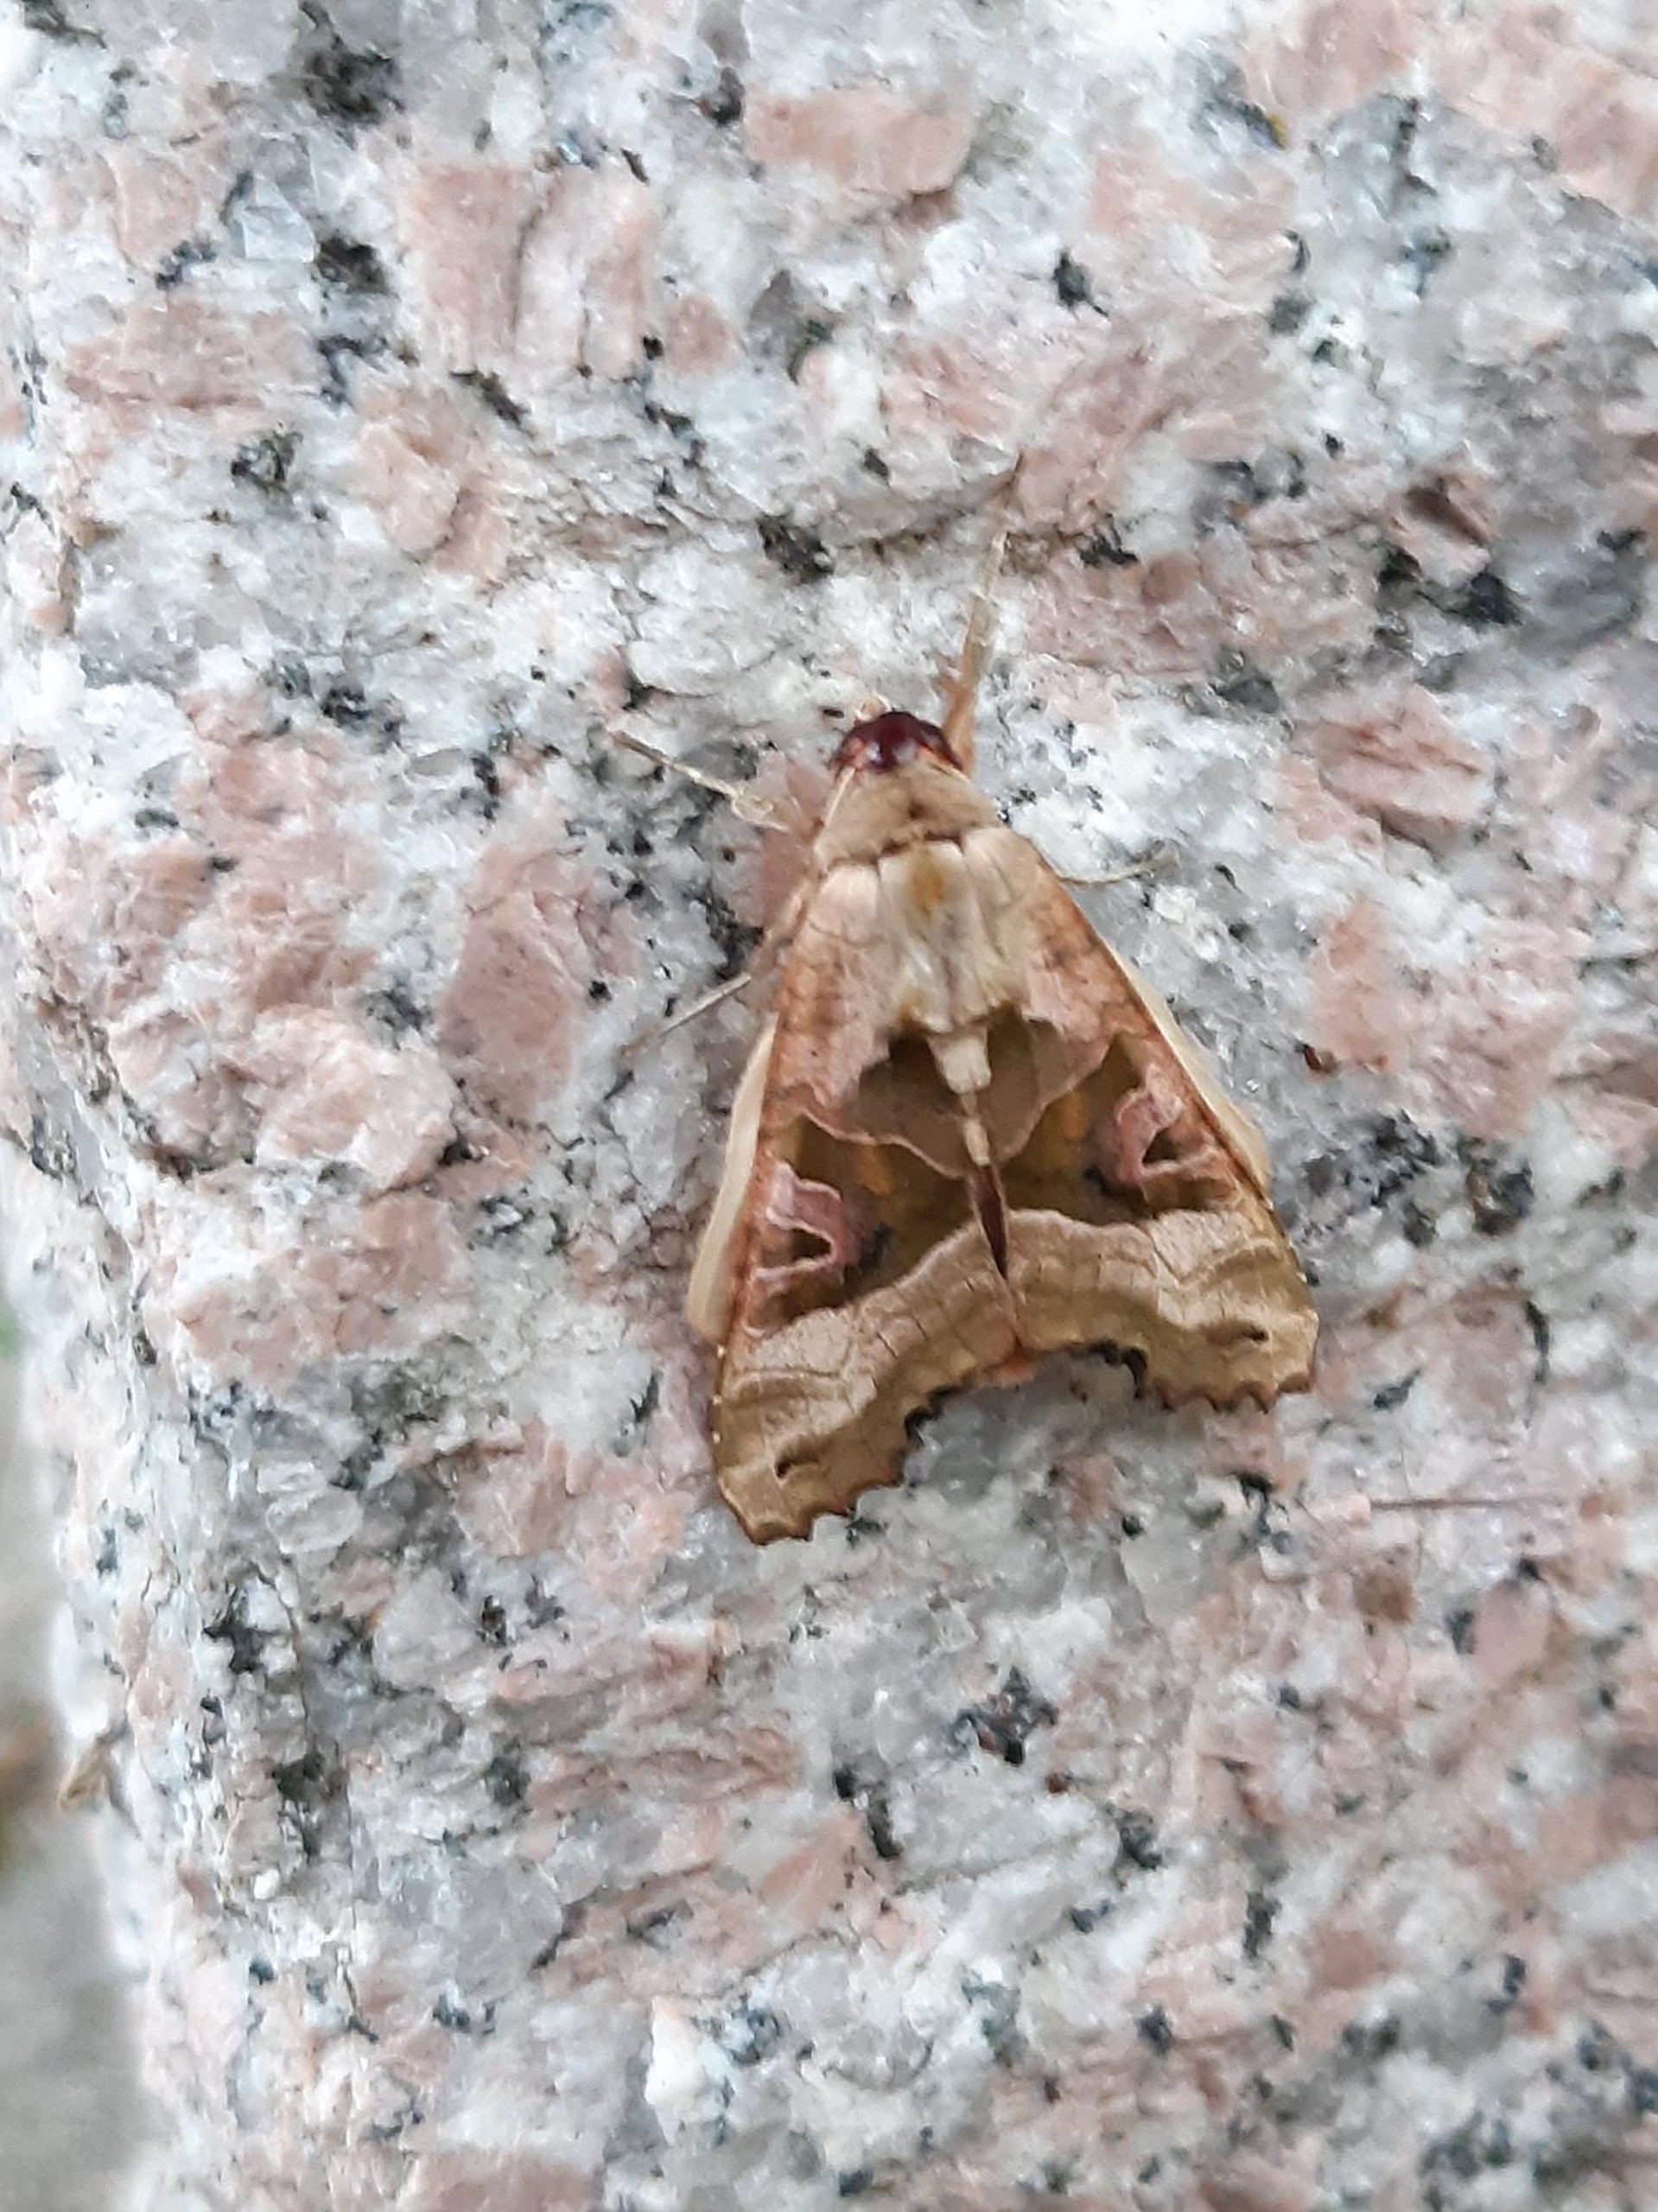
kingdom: Animalia
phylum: Arthropoda
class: Insecta
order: Lepidoptera
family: Noctuidae
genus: Phlogophora
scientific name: Phlogophora meticulosa
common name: Agatugle
